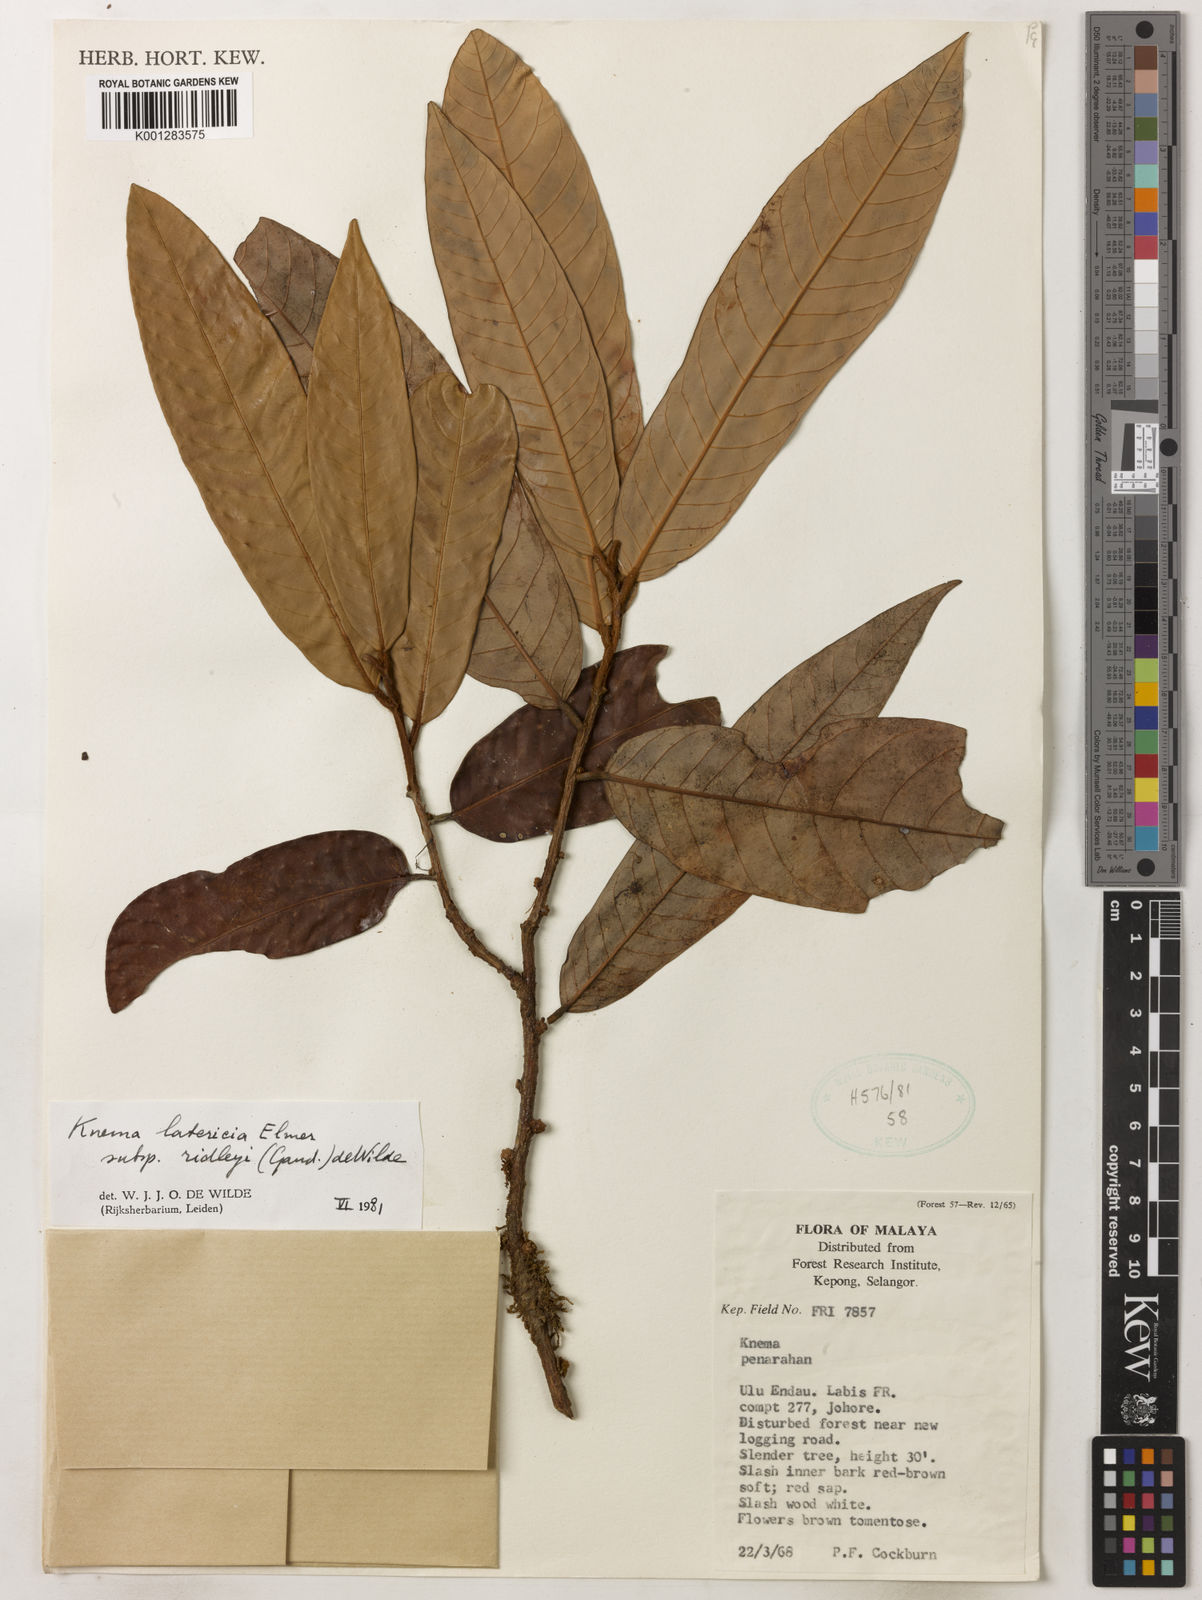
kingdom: Plantae
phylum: Tracheophyta
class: Magnoliopsida
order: Magnoliales
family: Myristicaceae
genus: Knema
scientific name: Knema latericia
